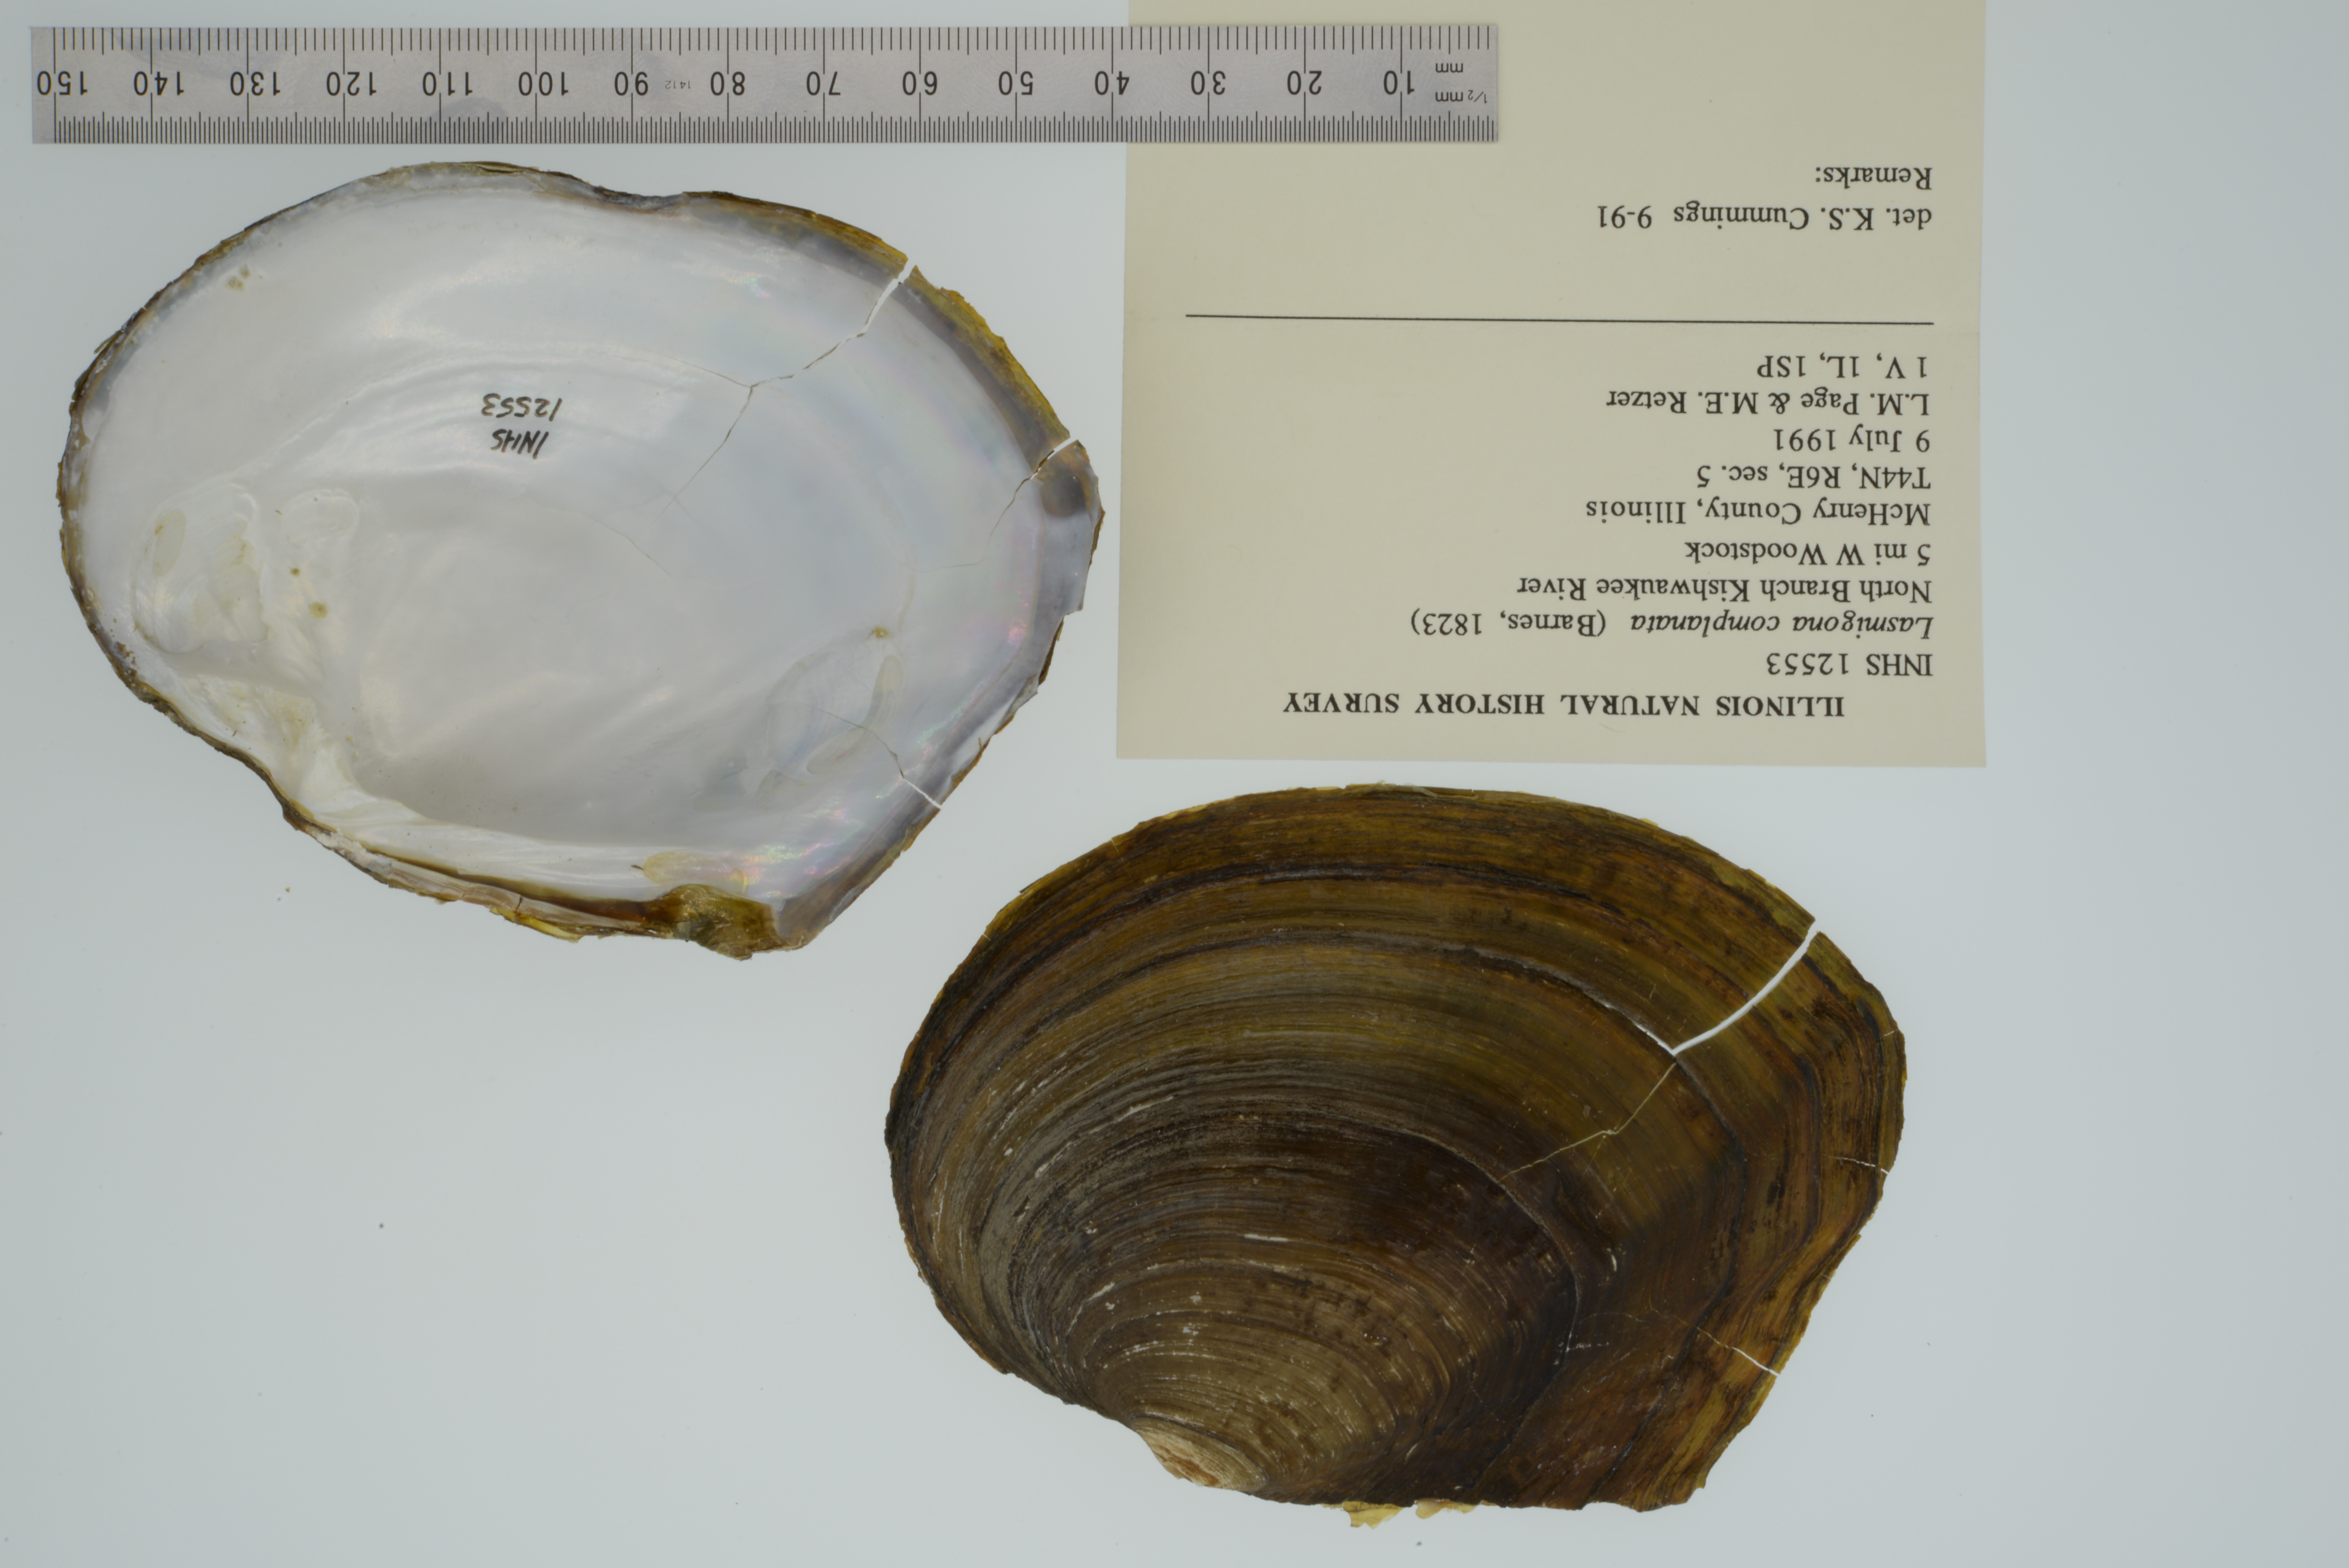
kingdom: Animalia
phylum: Mollusca
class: Bivalvia
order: Unionida
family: Unionidae
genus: Lasmigona
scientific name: Lasmigona complanata
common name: White heelsplitter
